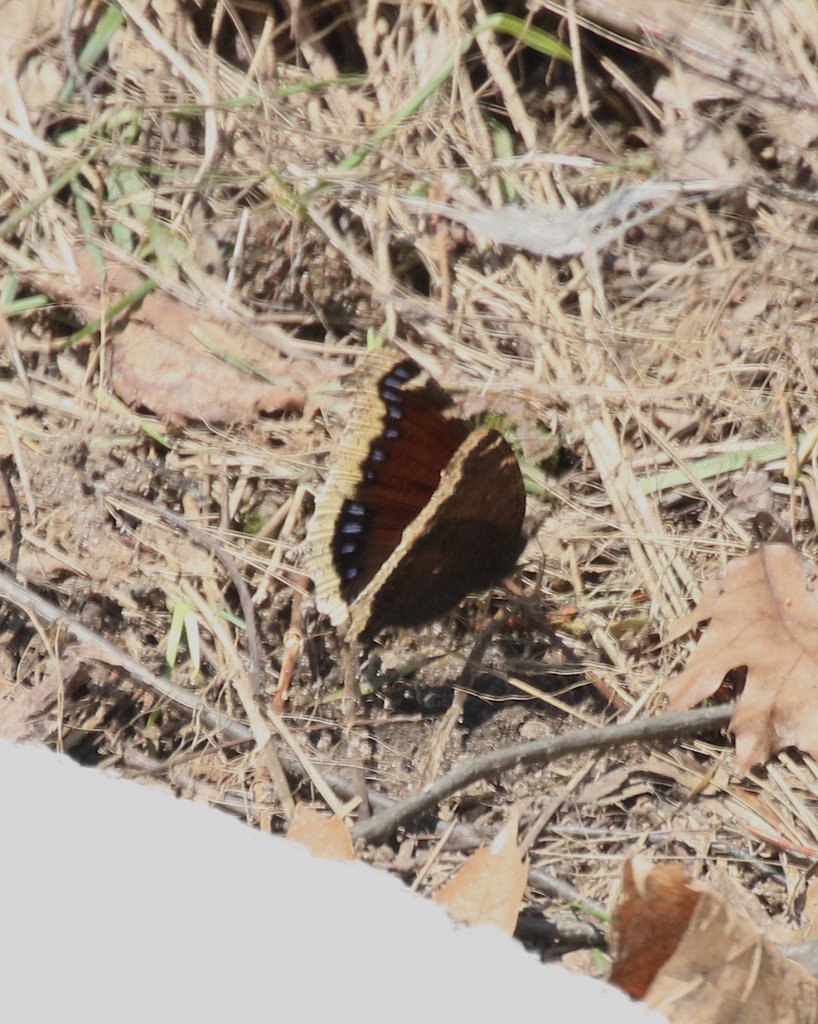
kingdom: Animalia
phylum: Arthropoda
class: Insecta
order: Lepidoptera
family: Nymphalidae
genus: Nymphalis
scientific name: Nymphalis antiopa
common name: Mourning Cloak
